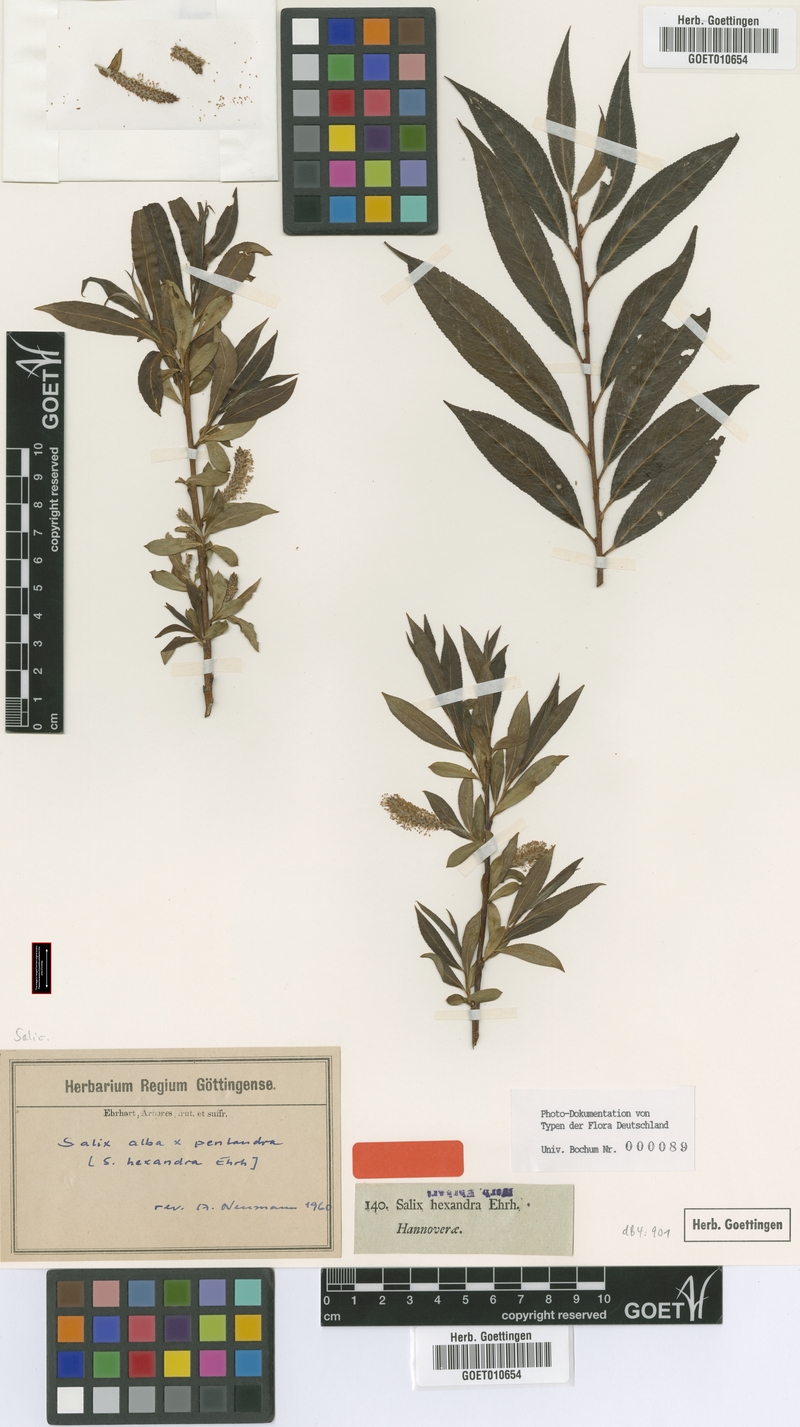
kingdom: Plantae
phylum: Tracheophyta
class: Magnoliopsida
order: Malpighiales
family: Salicaceae
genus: Salix
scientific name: Salix hexandra
